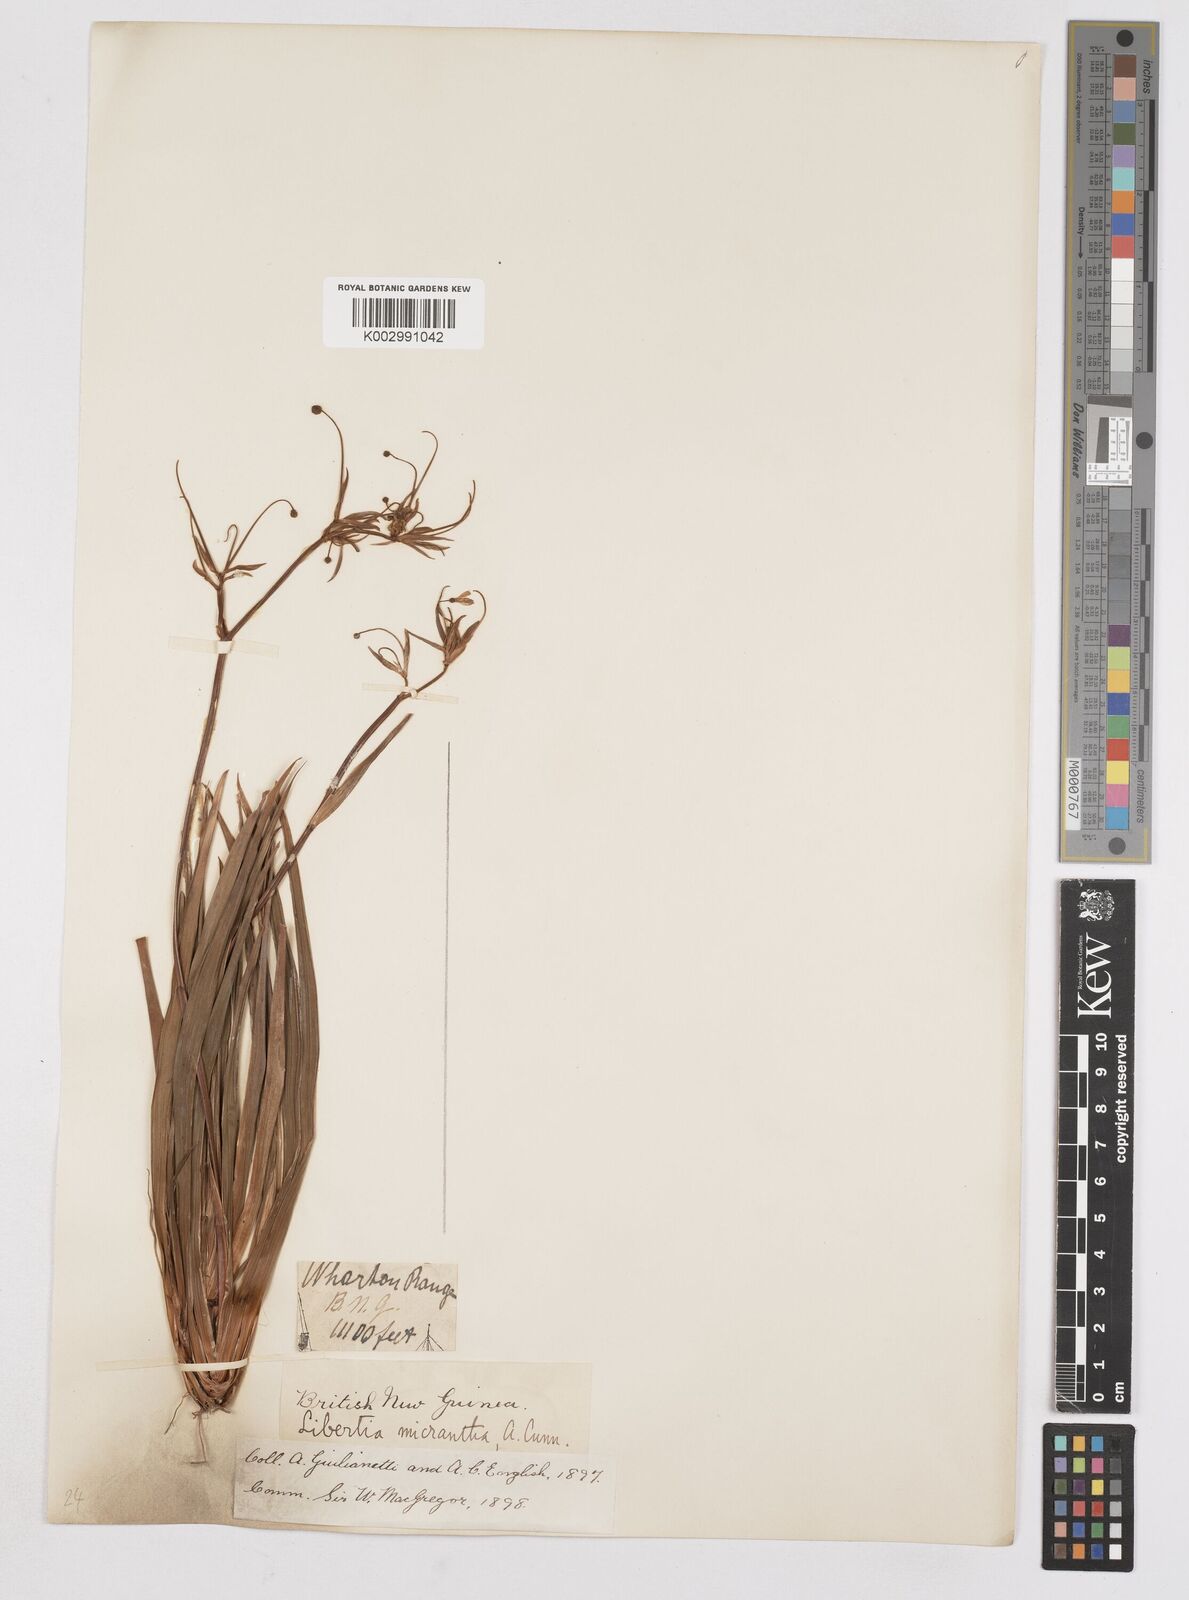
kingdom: Plantae
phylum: Tracheophyta
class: Liliopsida
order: Asparagales
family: Iridaceae
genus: Libertia
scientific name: Libertia pulchella
